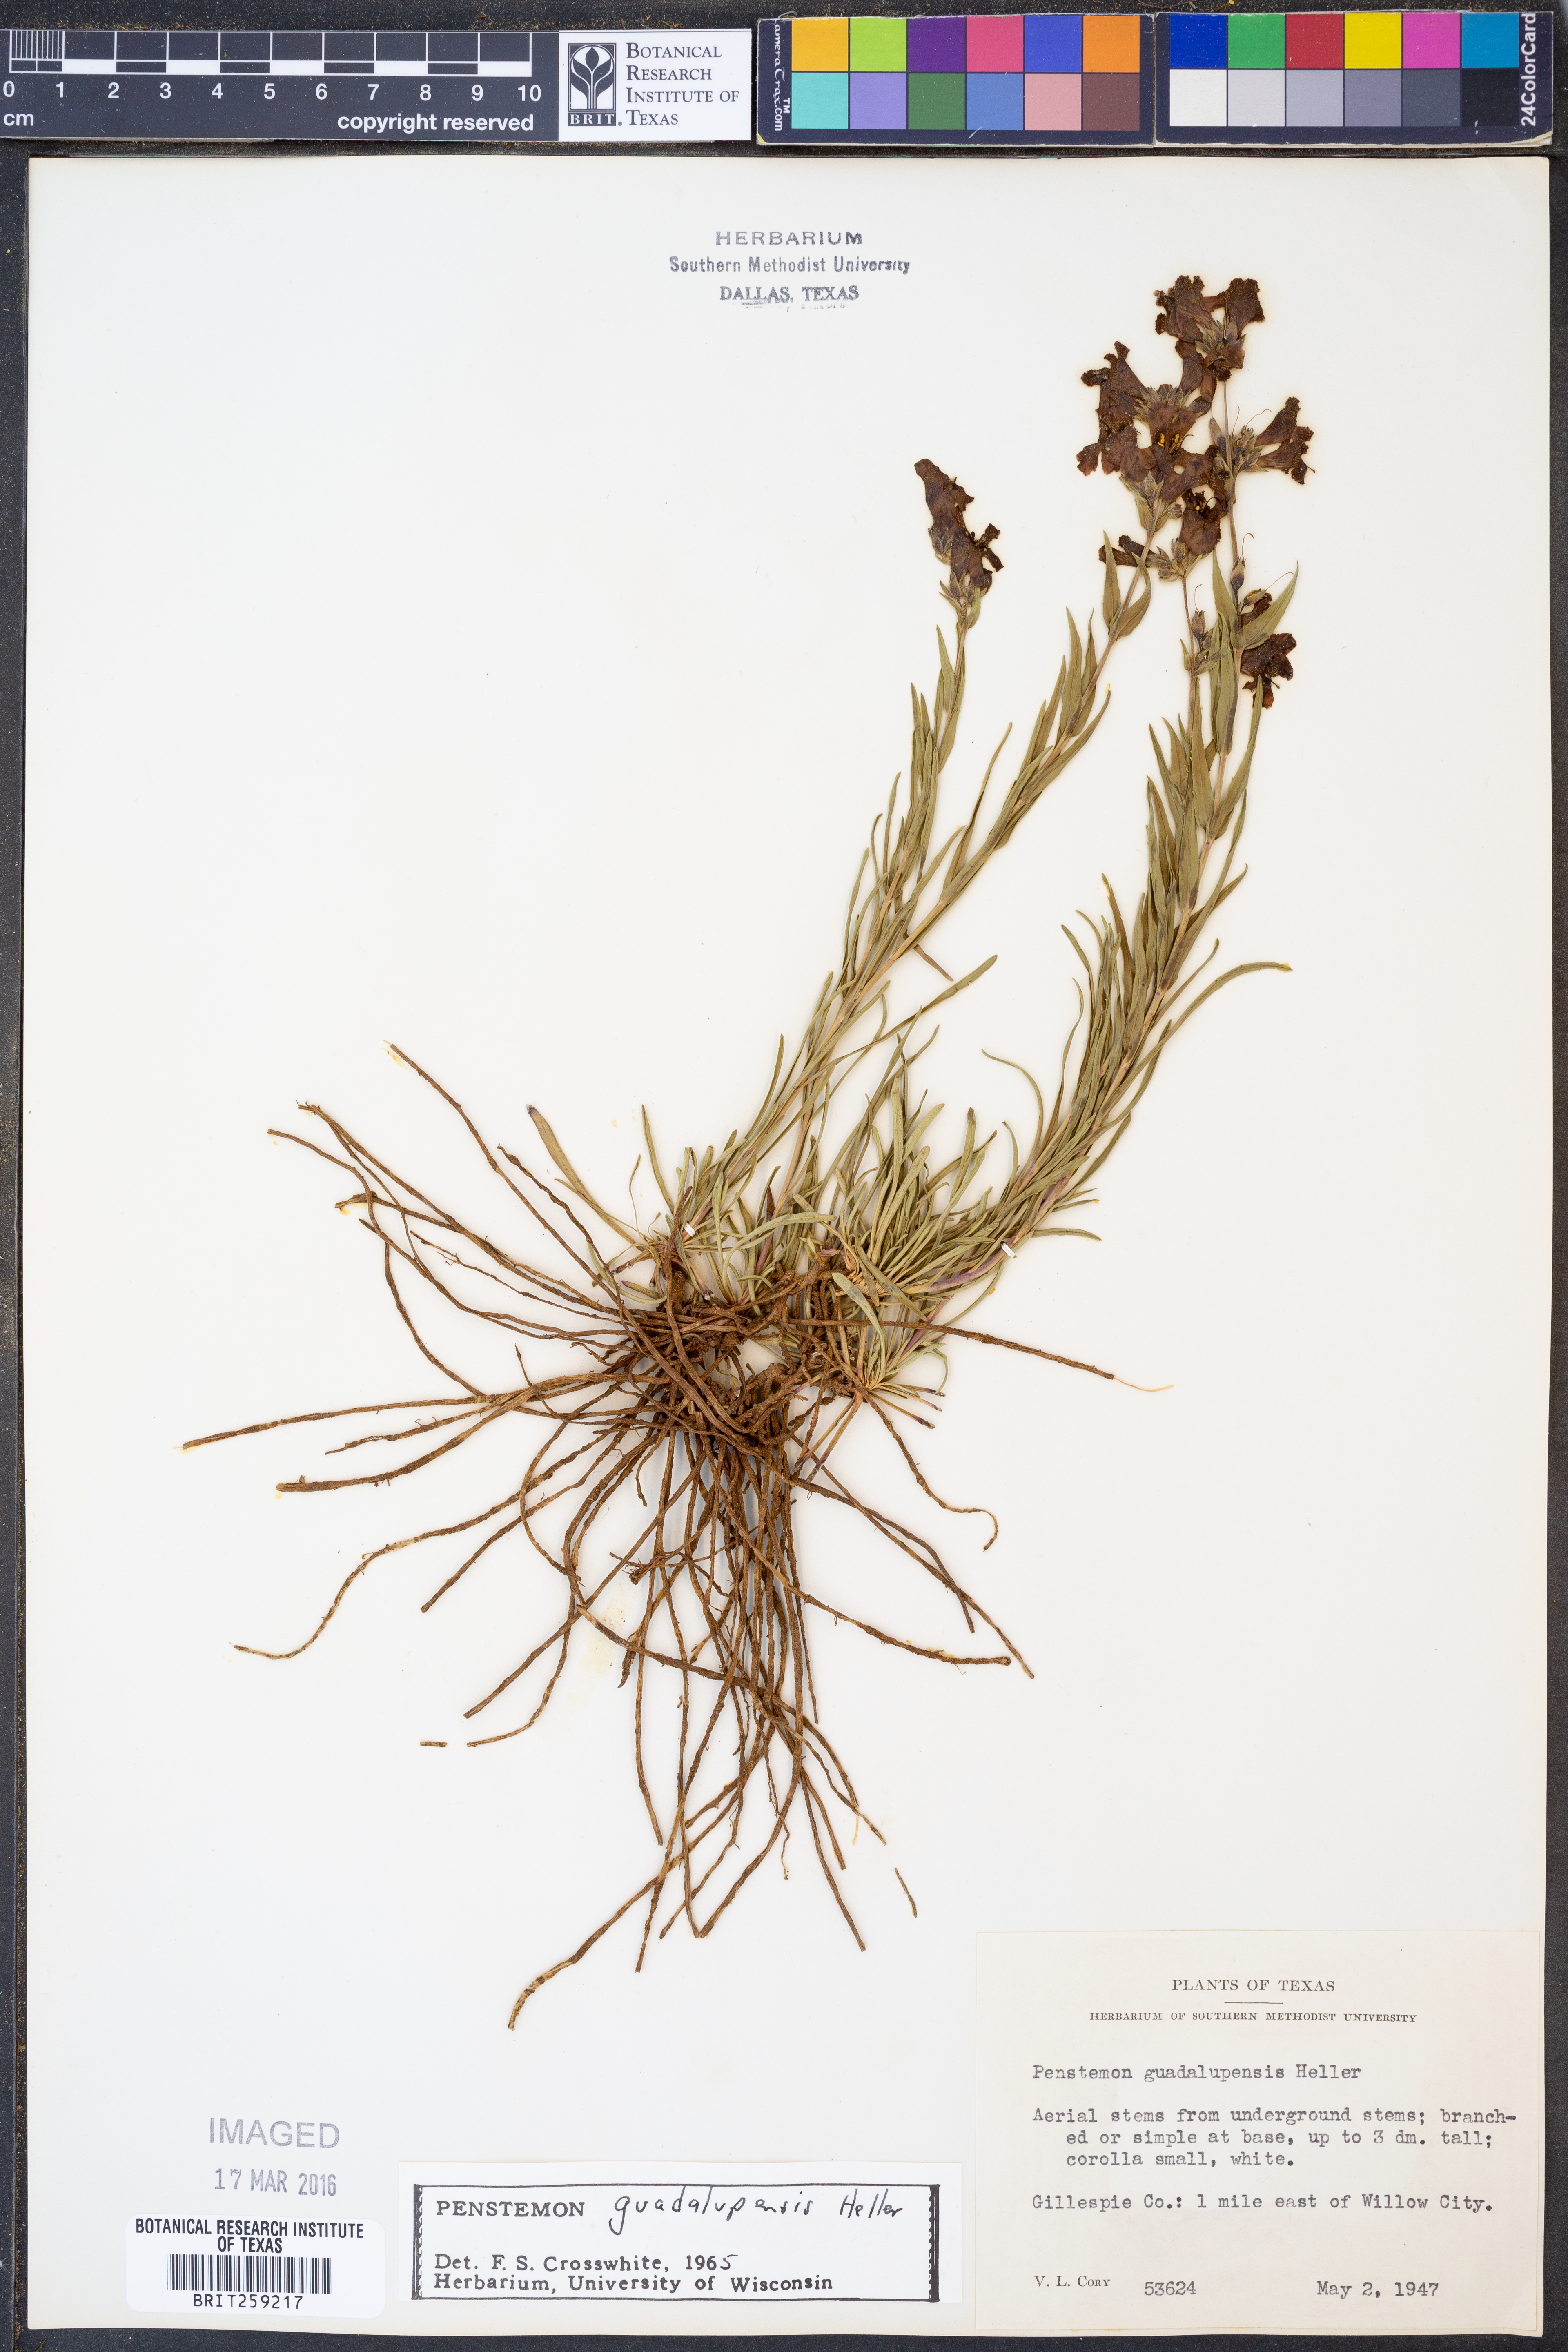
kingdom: Plantae
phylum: Tracheophyta
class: Magnoliopsida
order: Lamiales
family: Plantaginaceae
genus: Penstemon
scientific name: Penstemon guadalupensis
